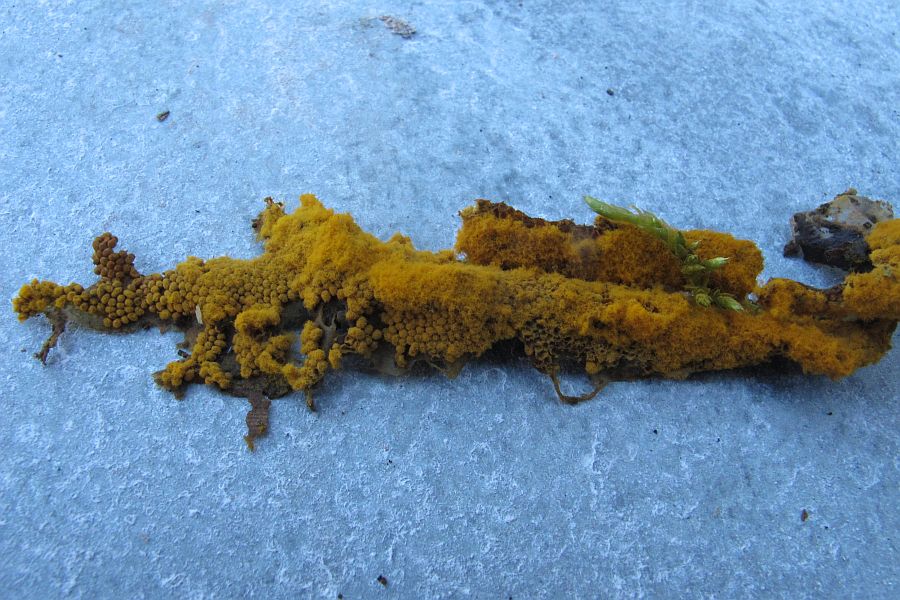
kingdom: Protozoa
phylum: Mycetozoa
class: Myxomycetes
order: Trichiales
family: Trichiaceae
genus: Trichia
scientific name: Trichia scabra
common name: tæppe-hårbold
